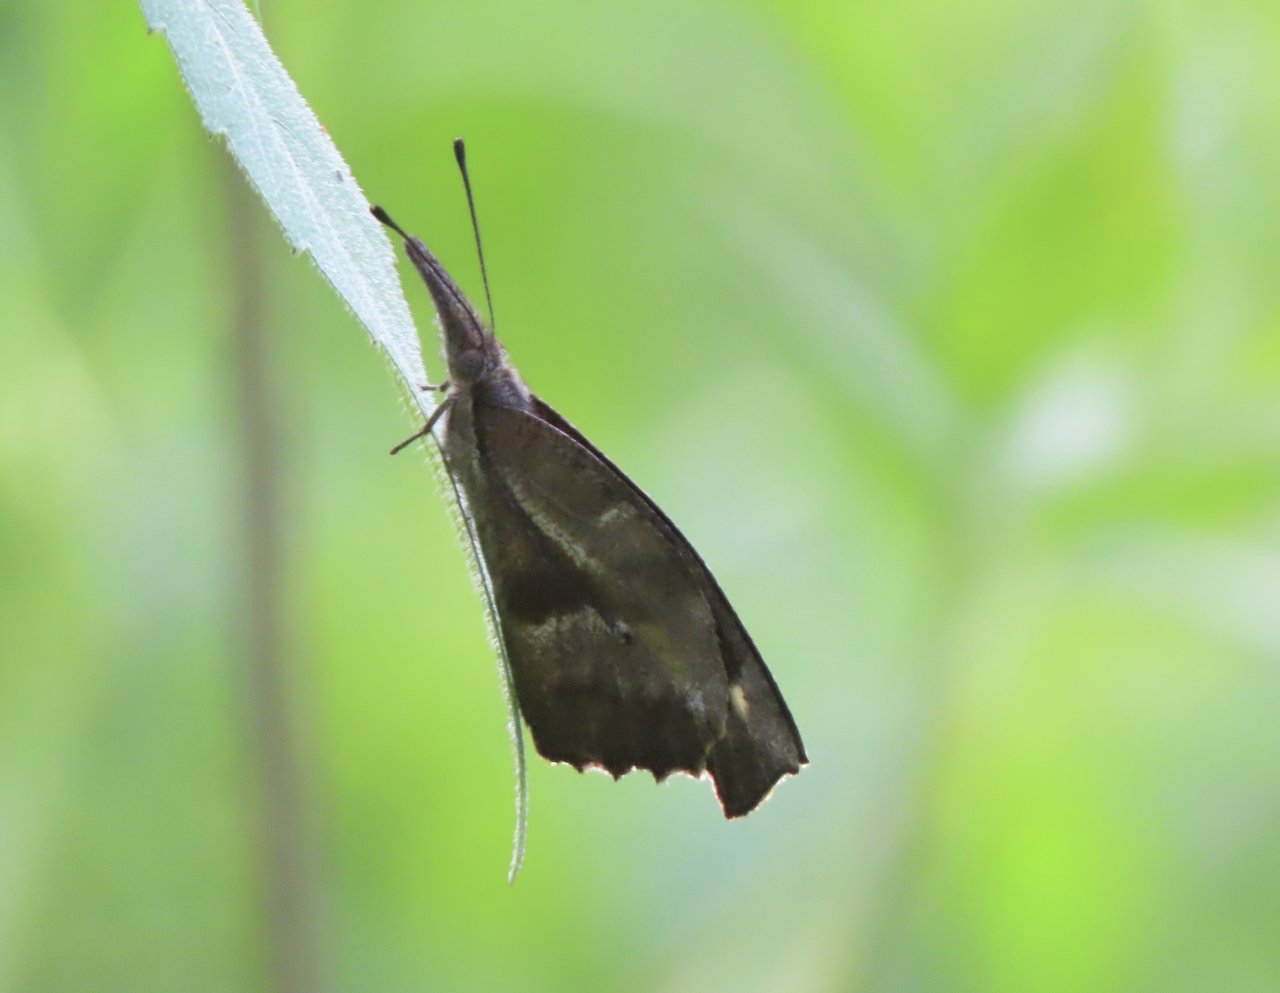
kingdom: Animalia
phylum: Arthropoda
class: Insecta
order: Lepidoptera
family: Nymphalidae
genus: Libytheana
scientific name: Libytheana carinenta
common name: American Snout
